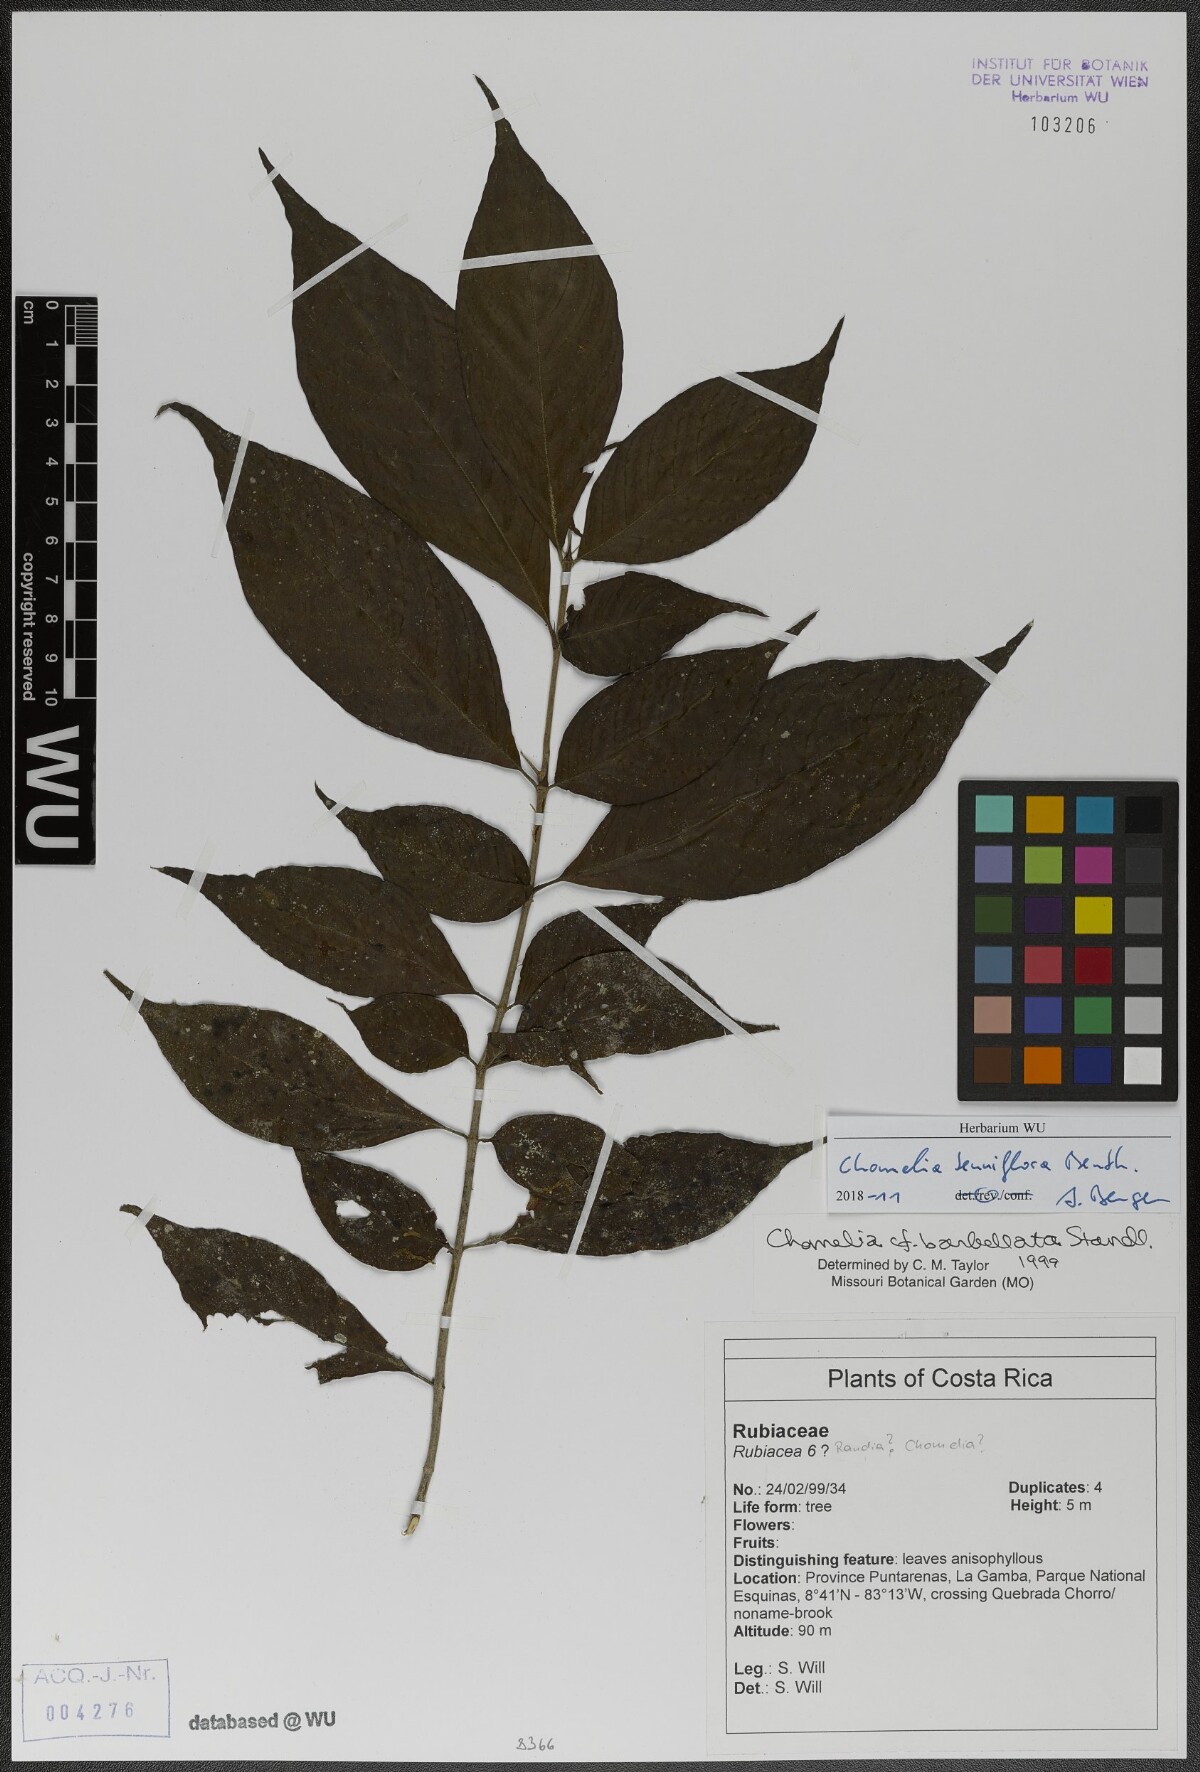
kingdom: Plantae
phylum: Tracheophyta
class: Magnoliopsida
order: Gentianales
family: Rubiaceae
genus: Chomelia
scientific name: Chomelia tenuiflora
